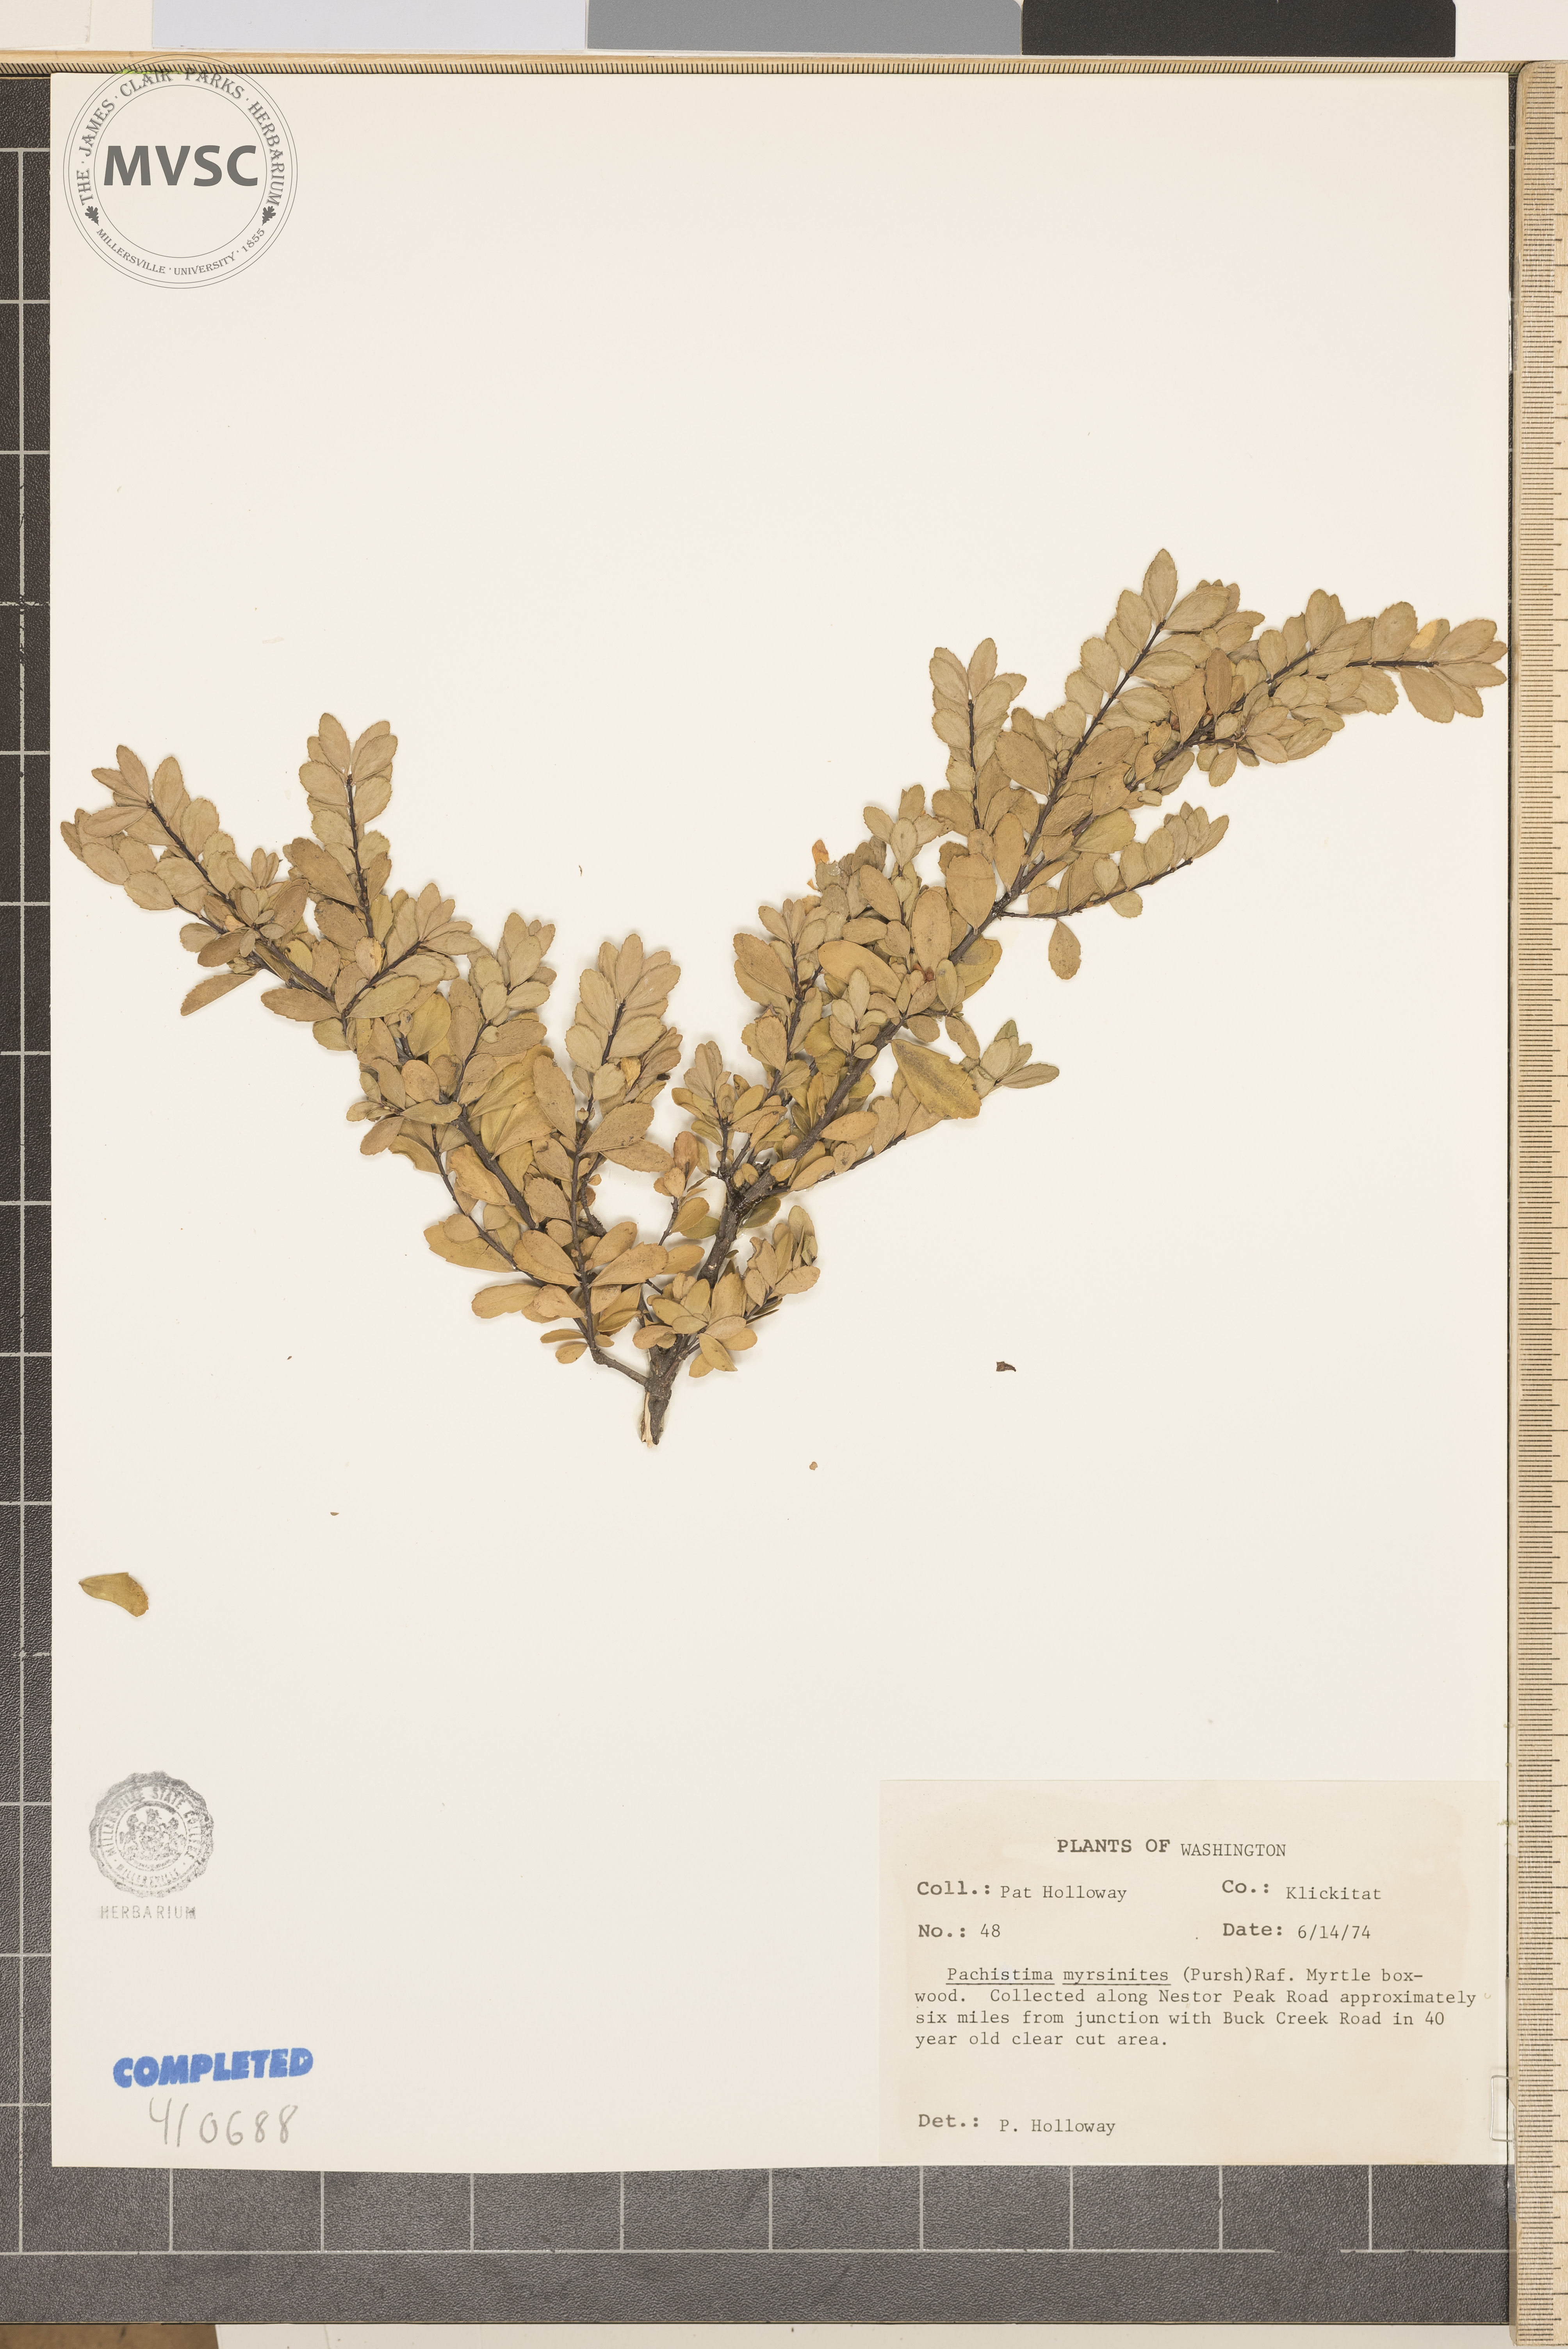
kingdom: Plantae
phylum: Tracheophyta
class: Magnoliopsida
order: Celastrales
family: Celastraceae
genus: Paxistima
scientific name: Paxistima myrsinites
